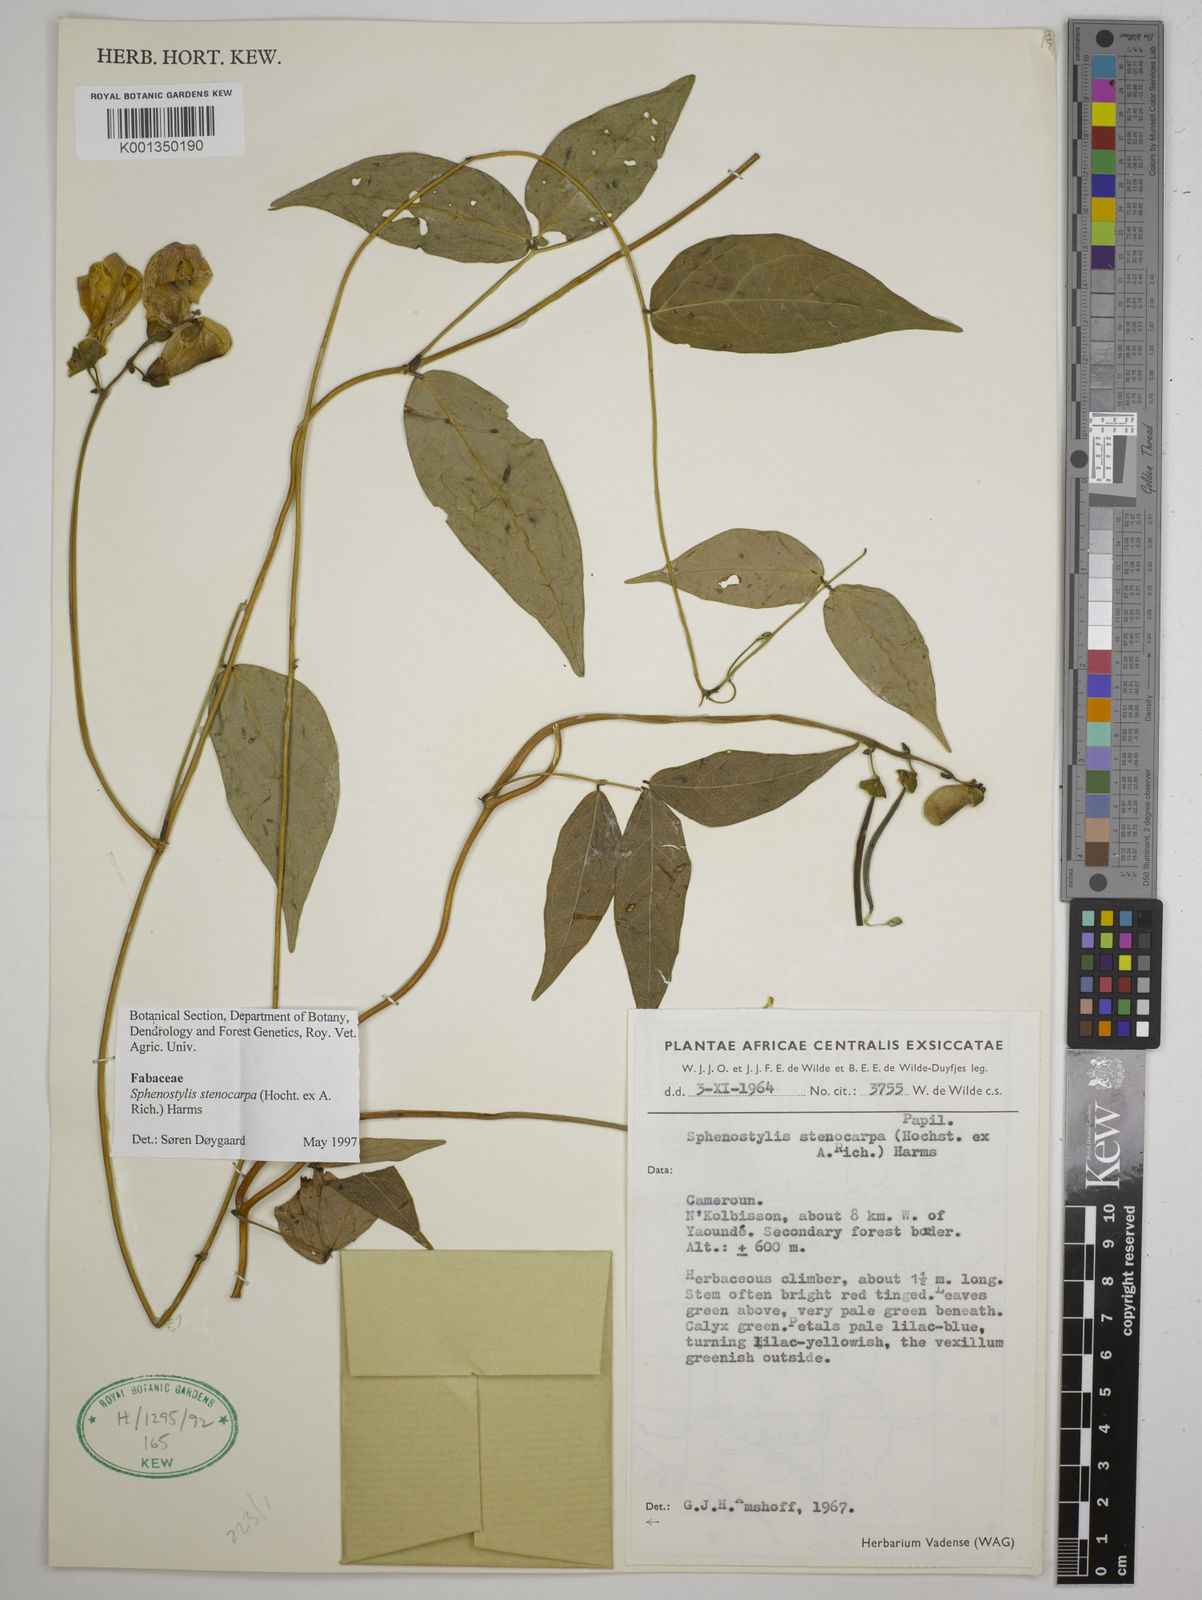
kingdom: Plantae
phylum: Tracheophyta
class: Magnoliopsida
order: Fabales
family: Fabaceae
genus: Sphenostylis
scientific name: Sphenostylis stenocarpa
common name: Yam-pea
